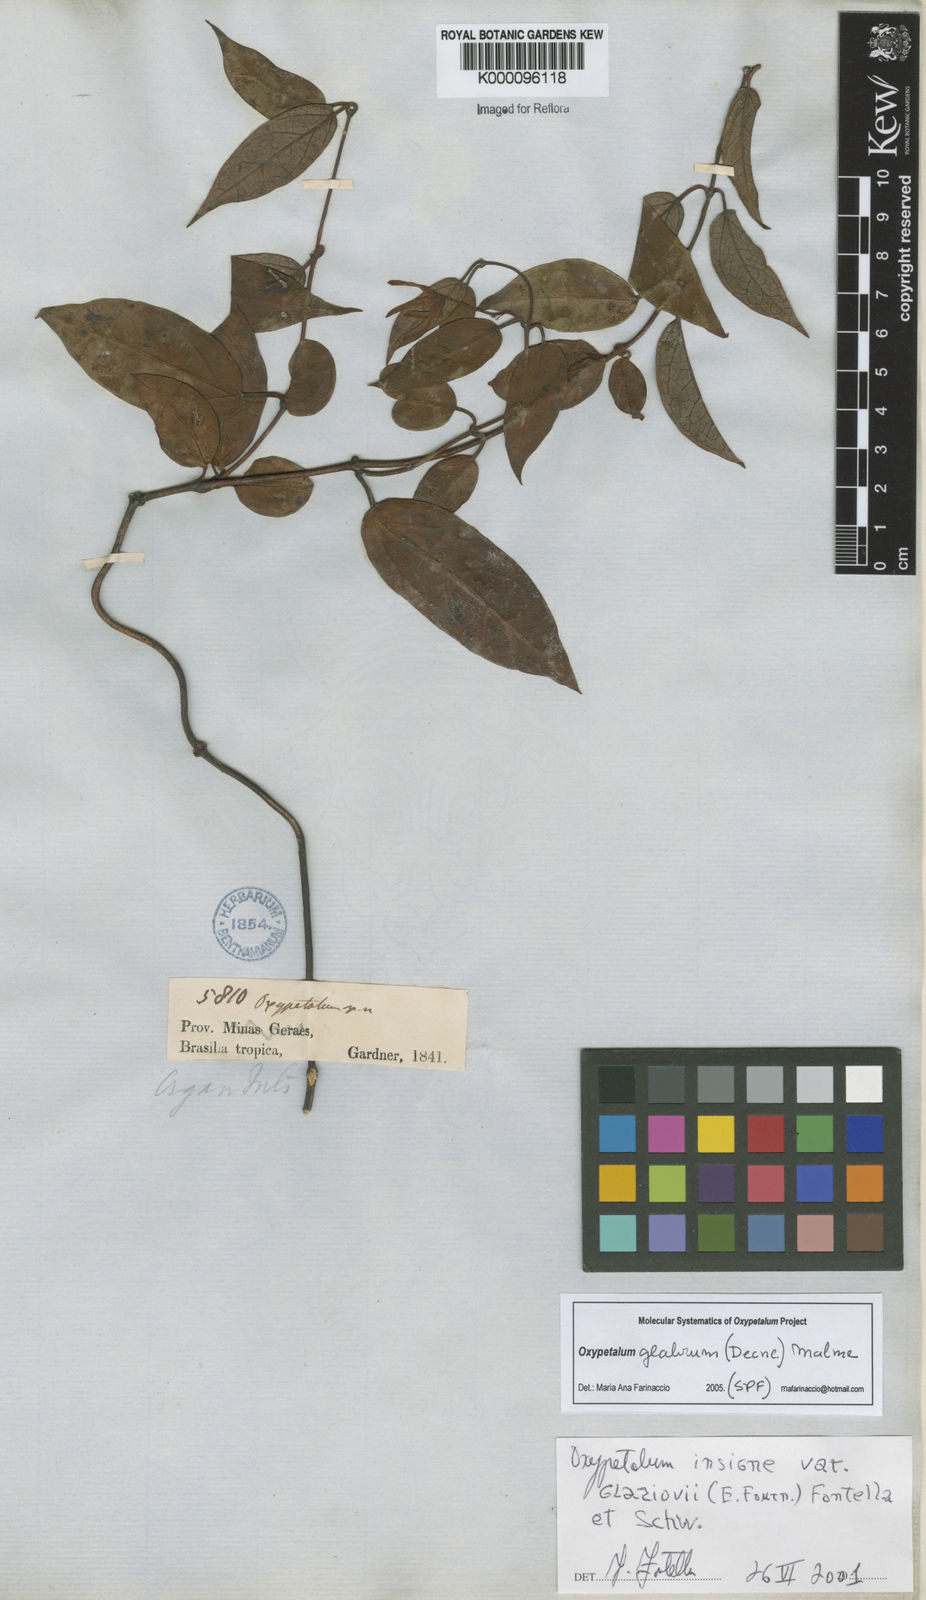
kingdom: Plantae
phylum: Tracheophyta
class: Magnoliopsida
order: Gentianales
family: Apocynaceae
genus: Oxypetalum
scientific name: Oxypetalum insigne
